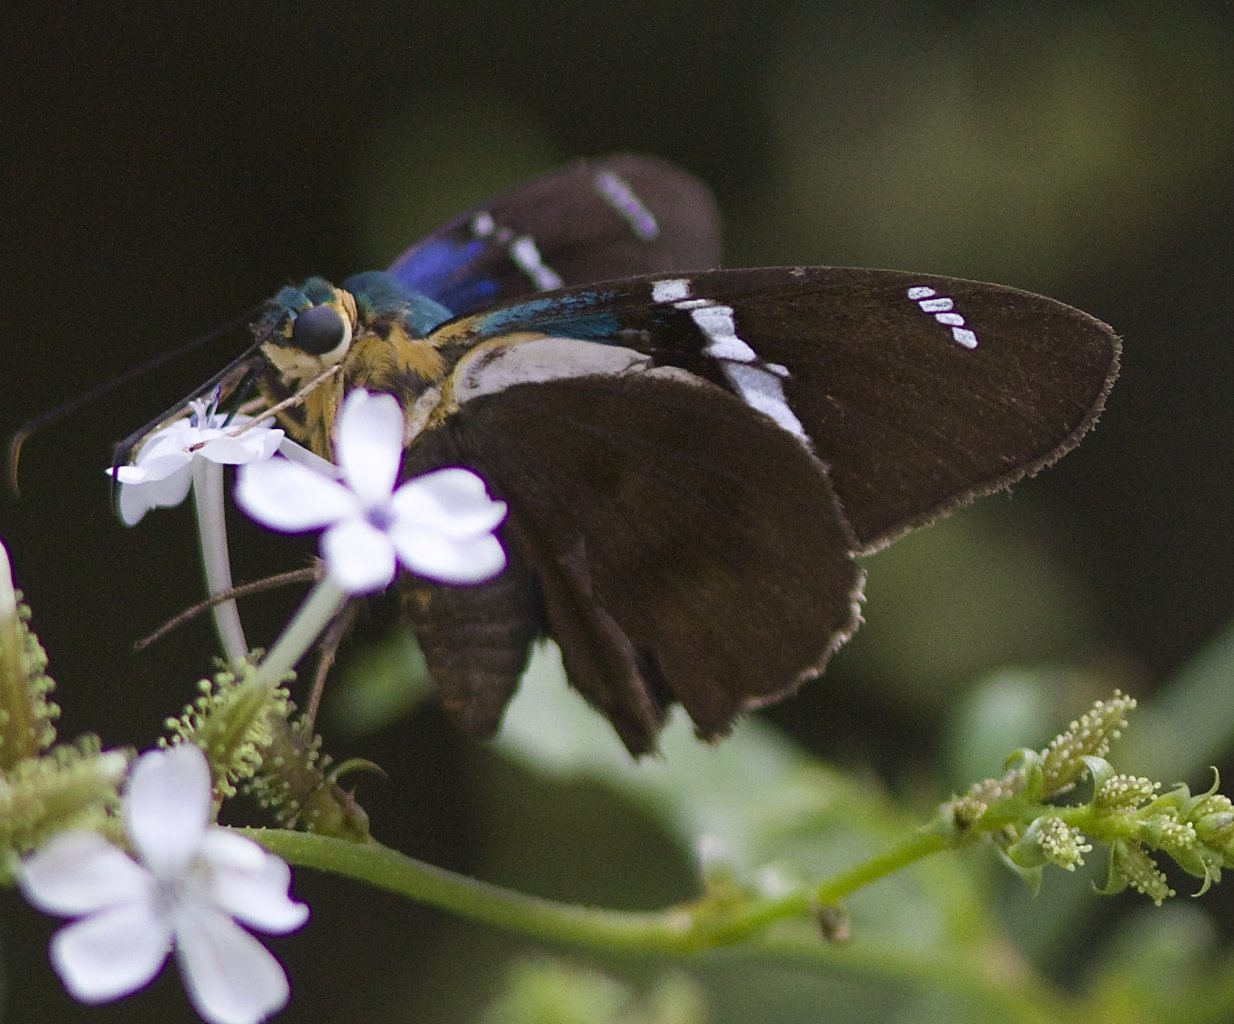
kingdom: Animalia
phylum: Arthropoda
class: Insecta
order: Lepidoptera
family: Hesperiidae
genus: Astraptes
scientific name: Astraptes fulgerator
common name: Two-barred Flasher
